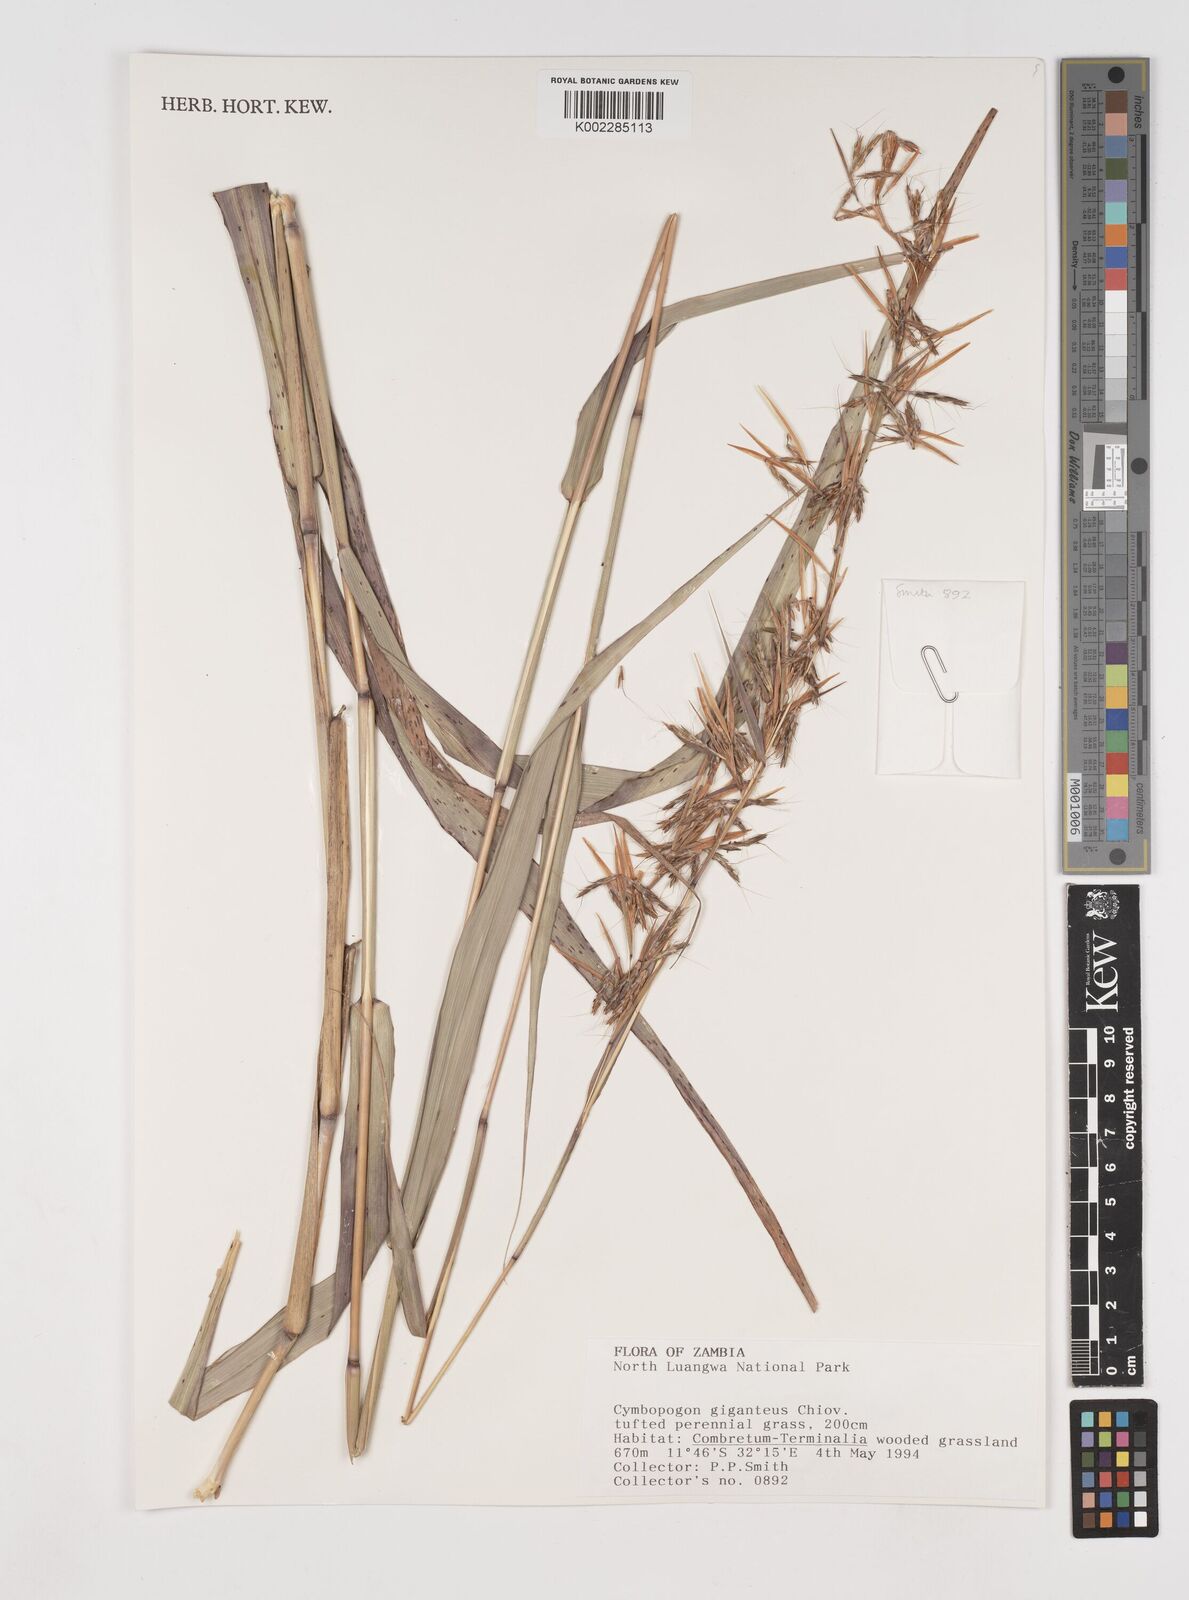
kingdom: Plantae
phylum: Tracheophyta
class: Liliopsida
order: Poales
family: Poaceae
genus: Cymbopogon
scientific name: Cymbopogon giganteus
